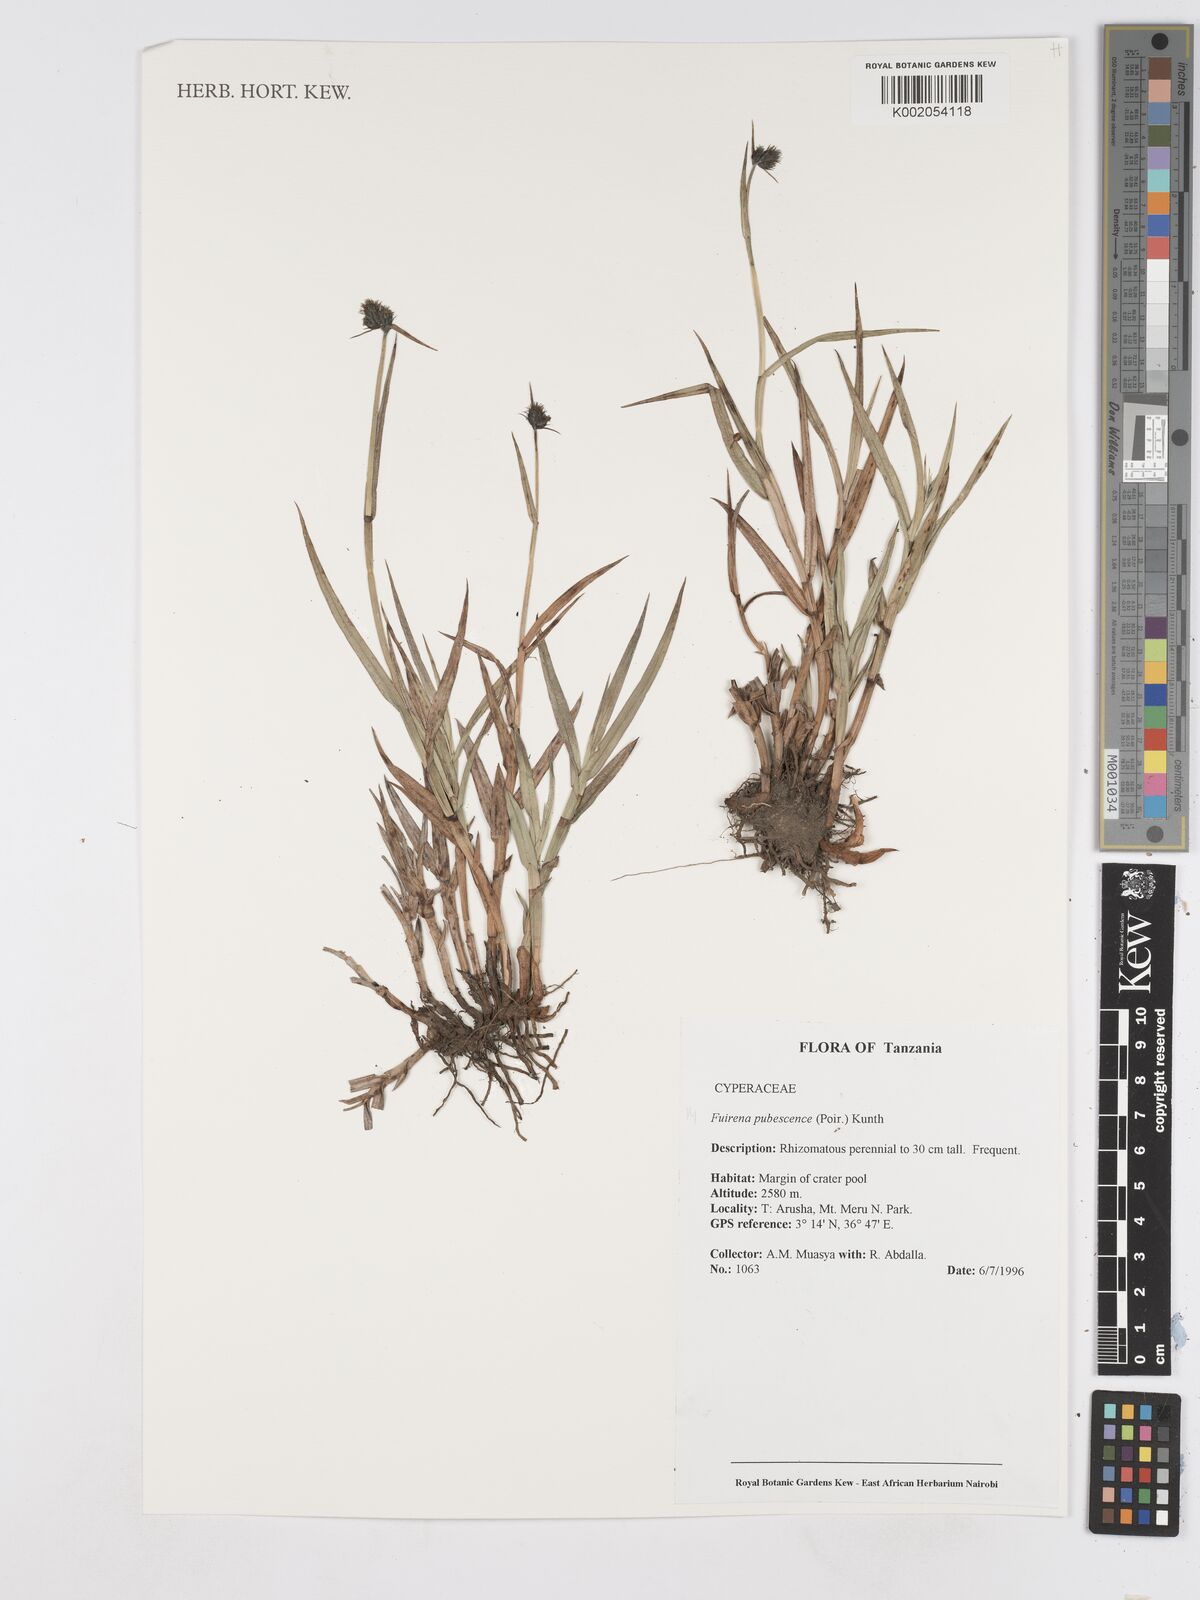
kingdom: Plantae
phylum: Tracheophyta
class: Liliopsida
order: Poales
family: Cyperaceae
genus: Fuirena
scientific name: Fuirena pubescens
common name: Hairy sedge
